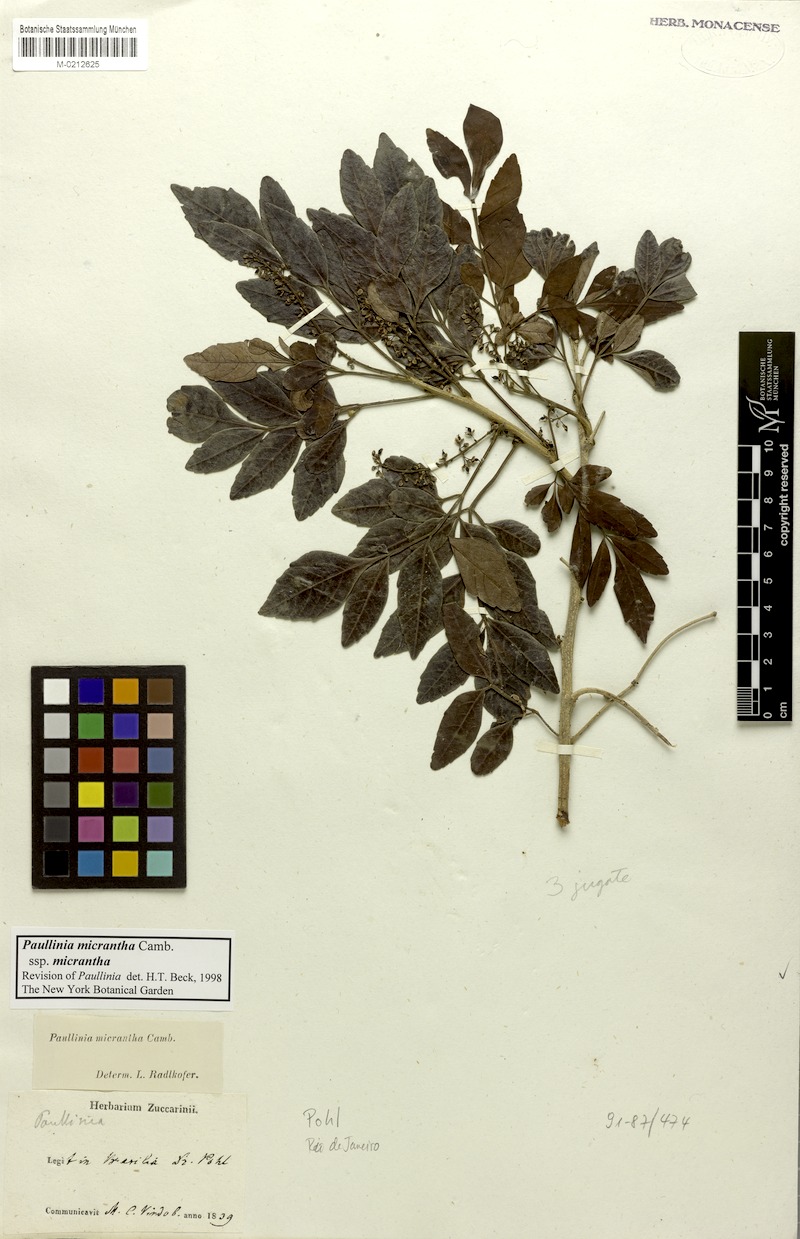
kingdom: Plantae
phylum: Tracheophyta
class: Magnoliopsida
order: Sapindales
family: Sapindaceae
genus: Paullinia
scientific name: Paullinia micrantha
